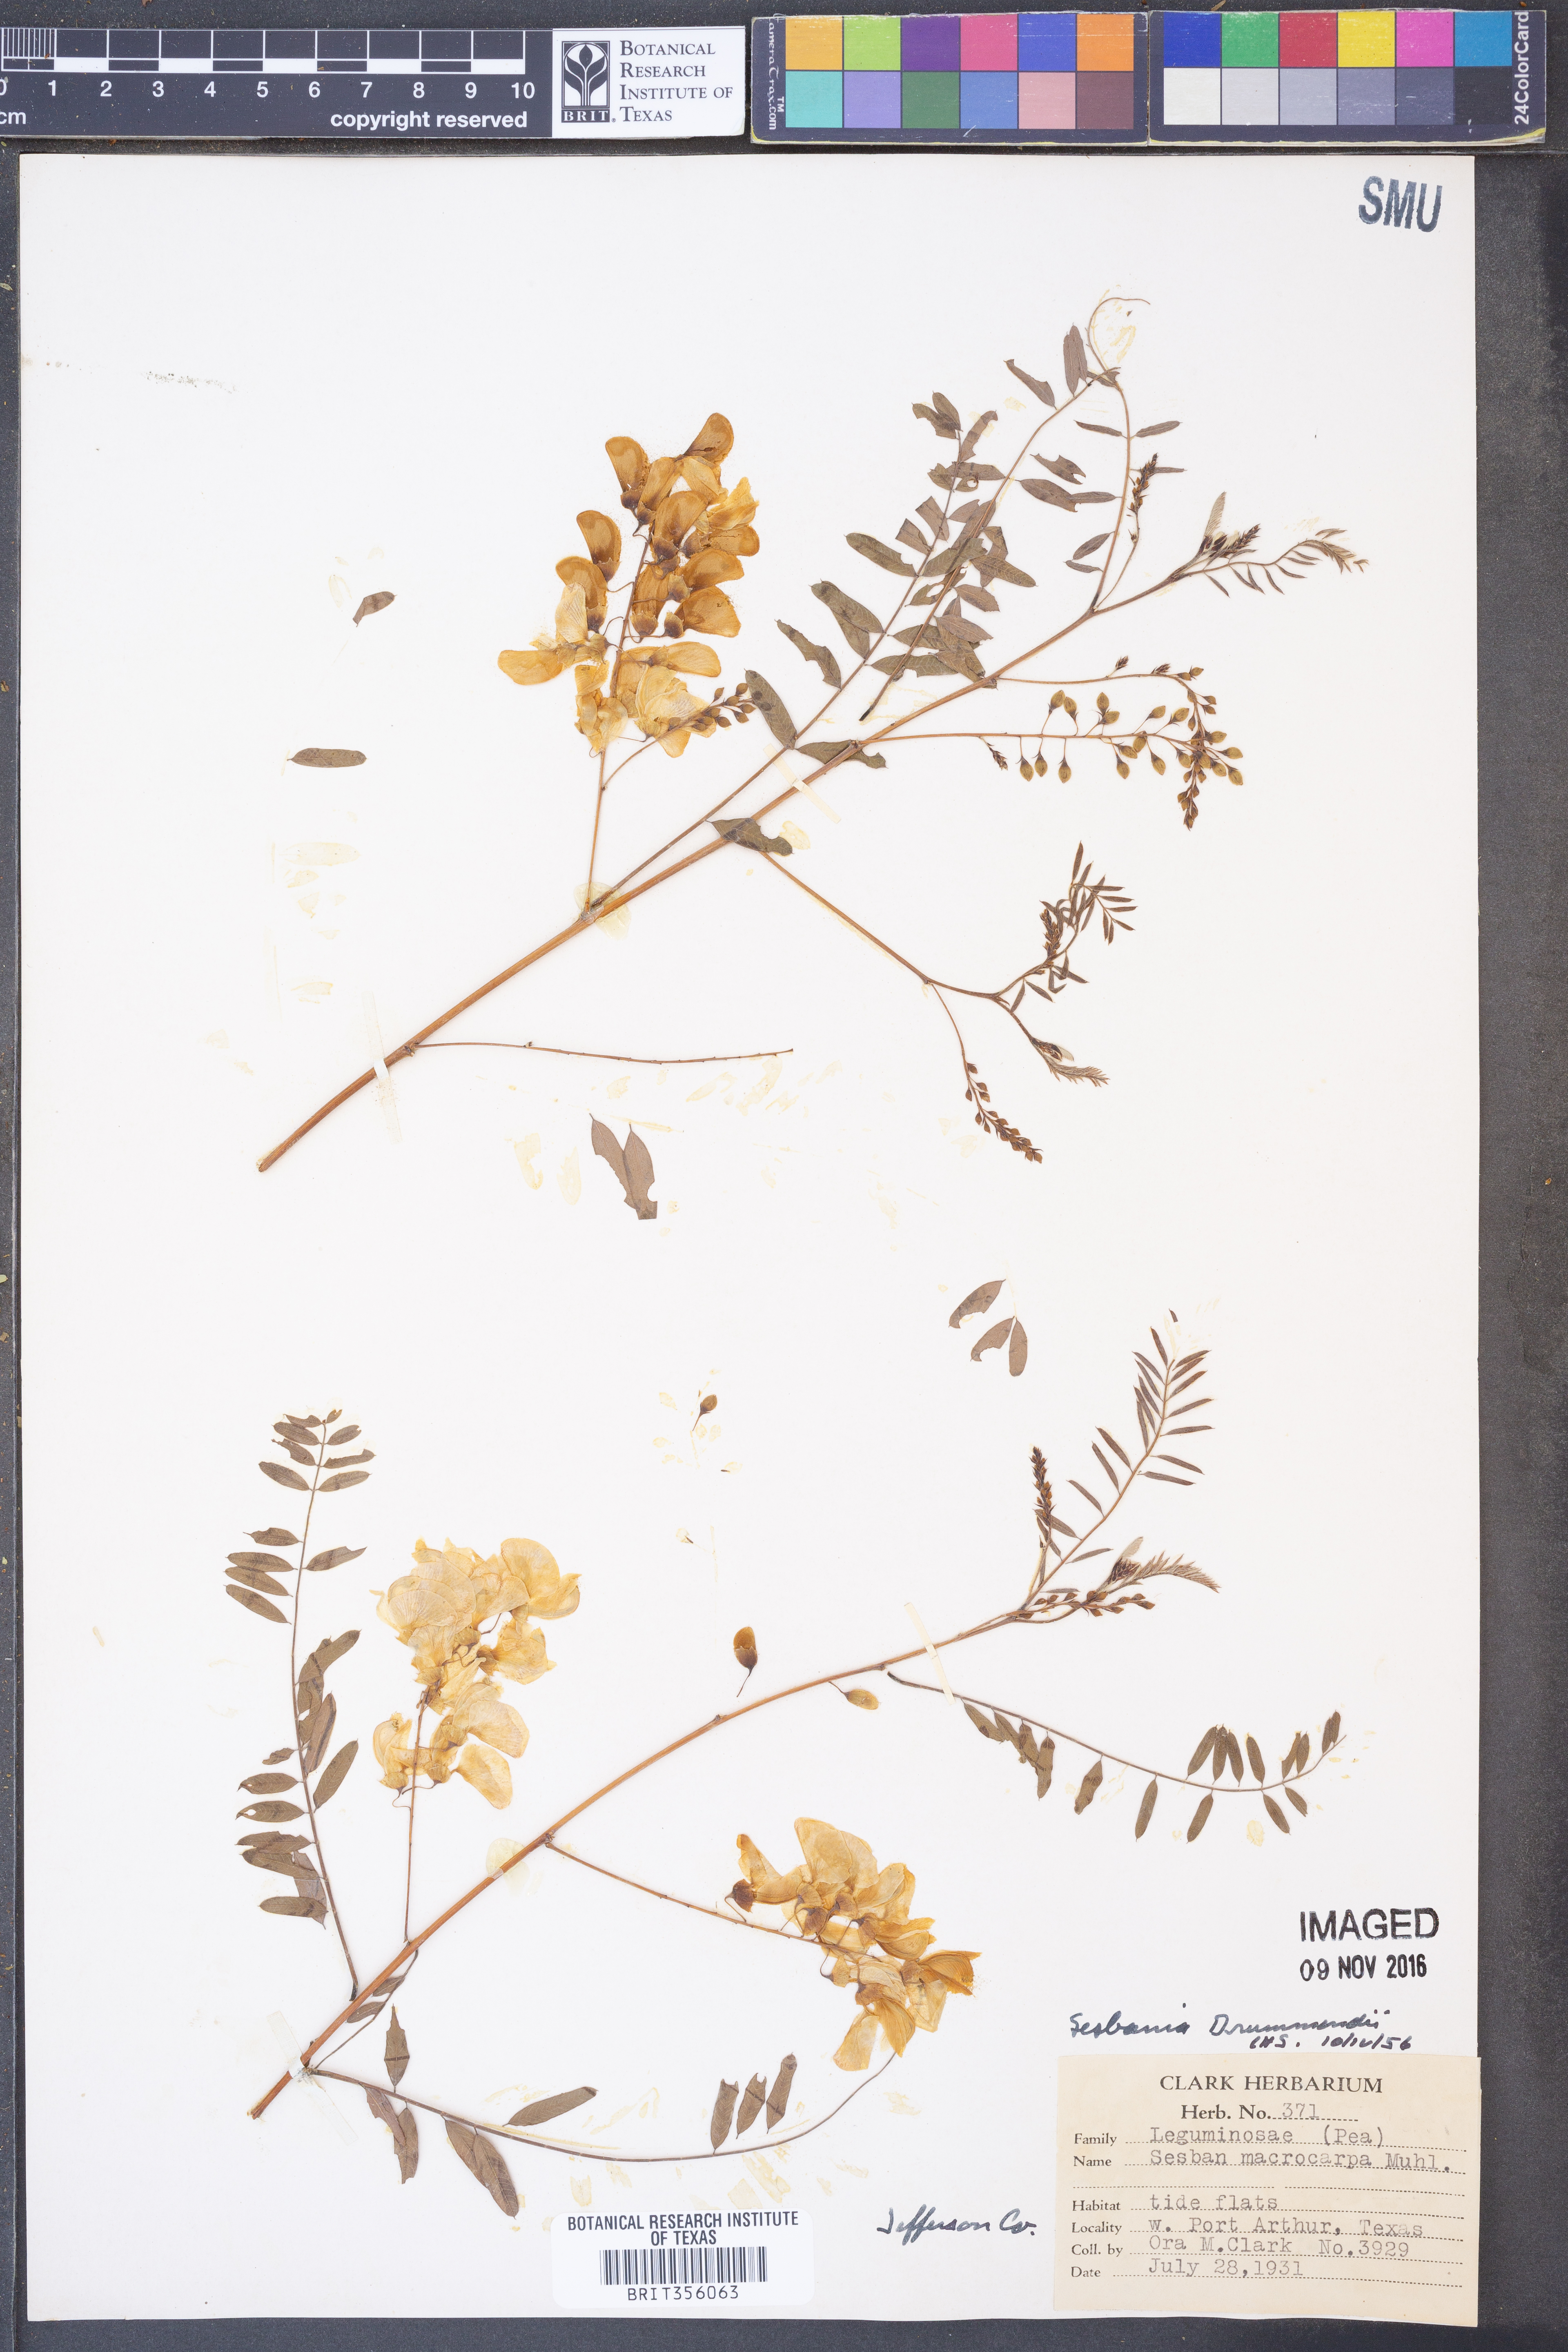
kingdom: Plantae
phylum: Tracheophyta
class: Magnoliopsida
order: Fabales
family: Fabaceae
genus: Sesbania
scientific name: Sesbania drummondii
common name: Poison-bean
